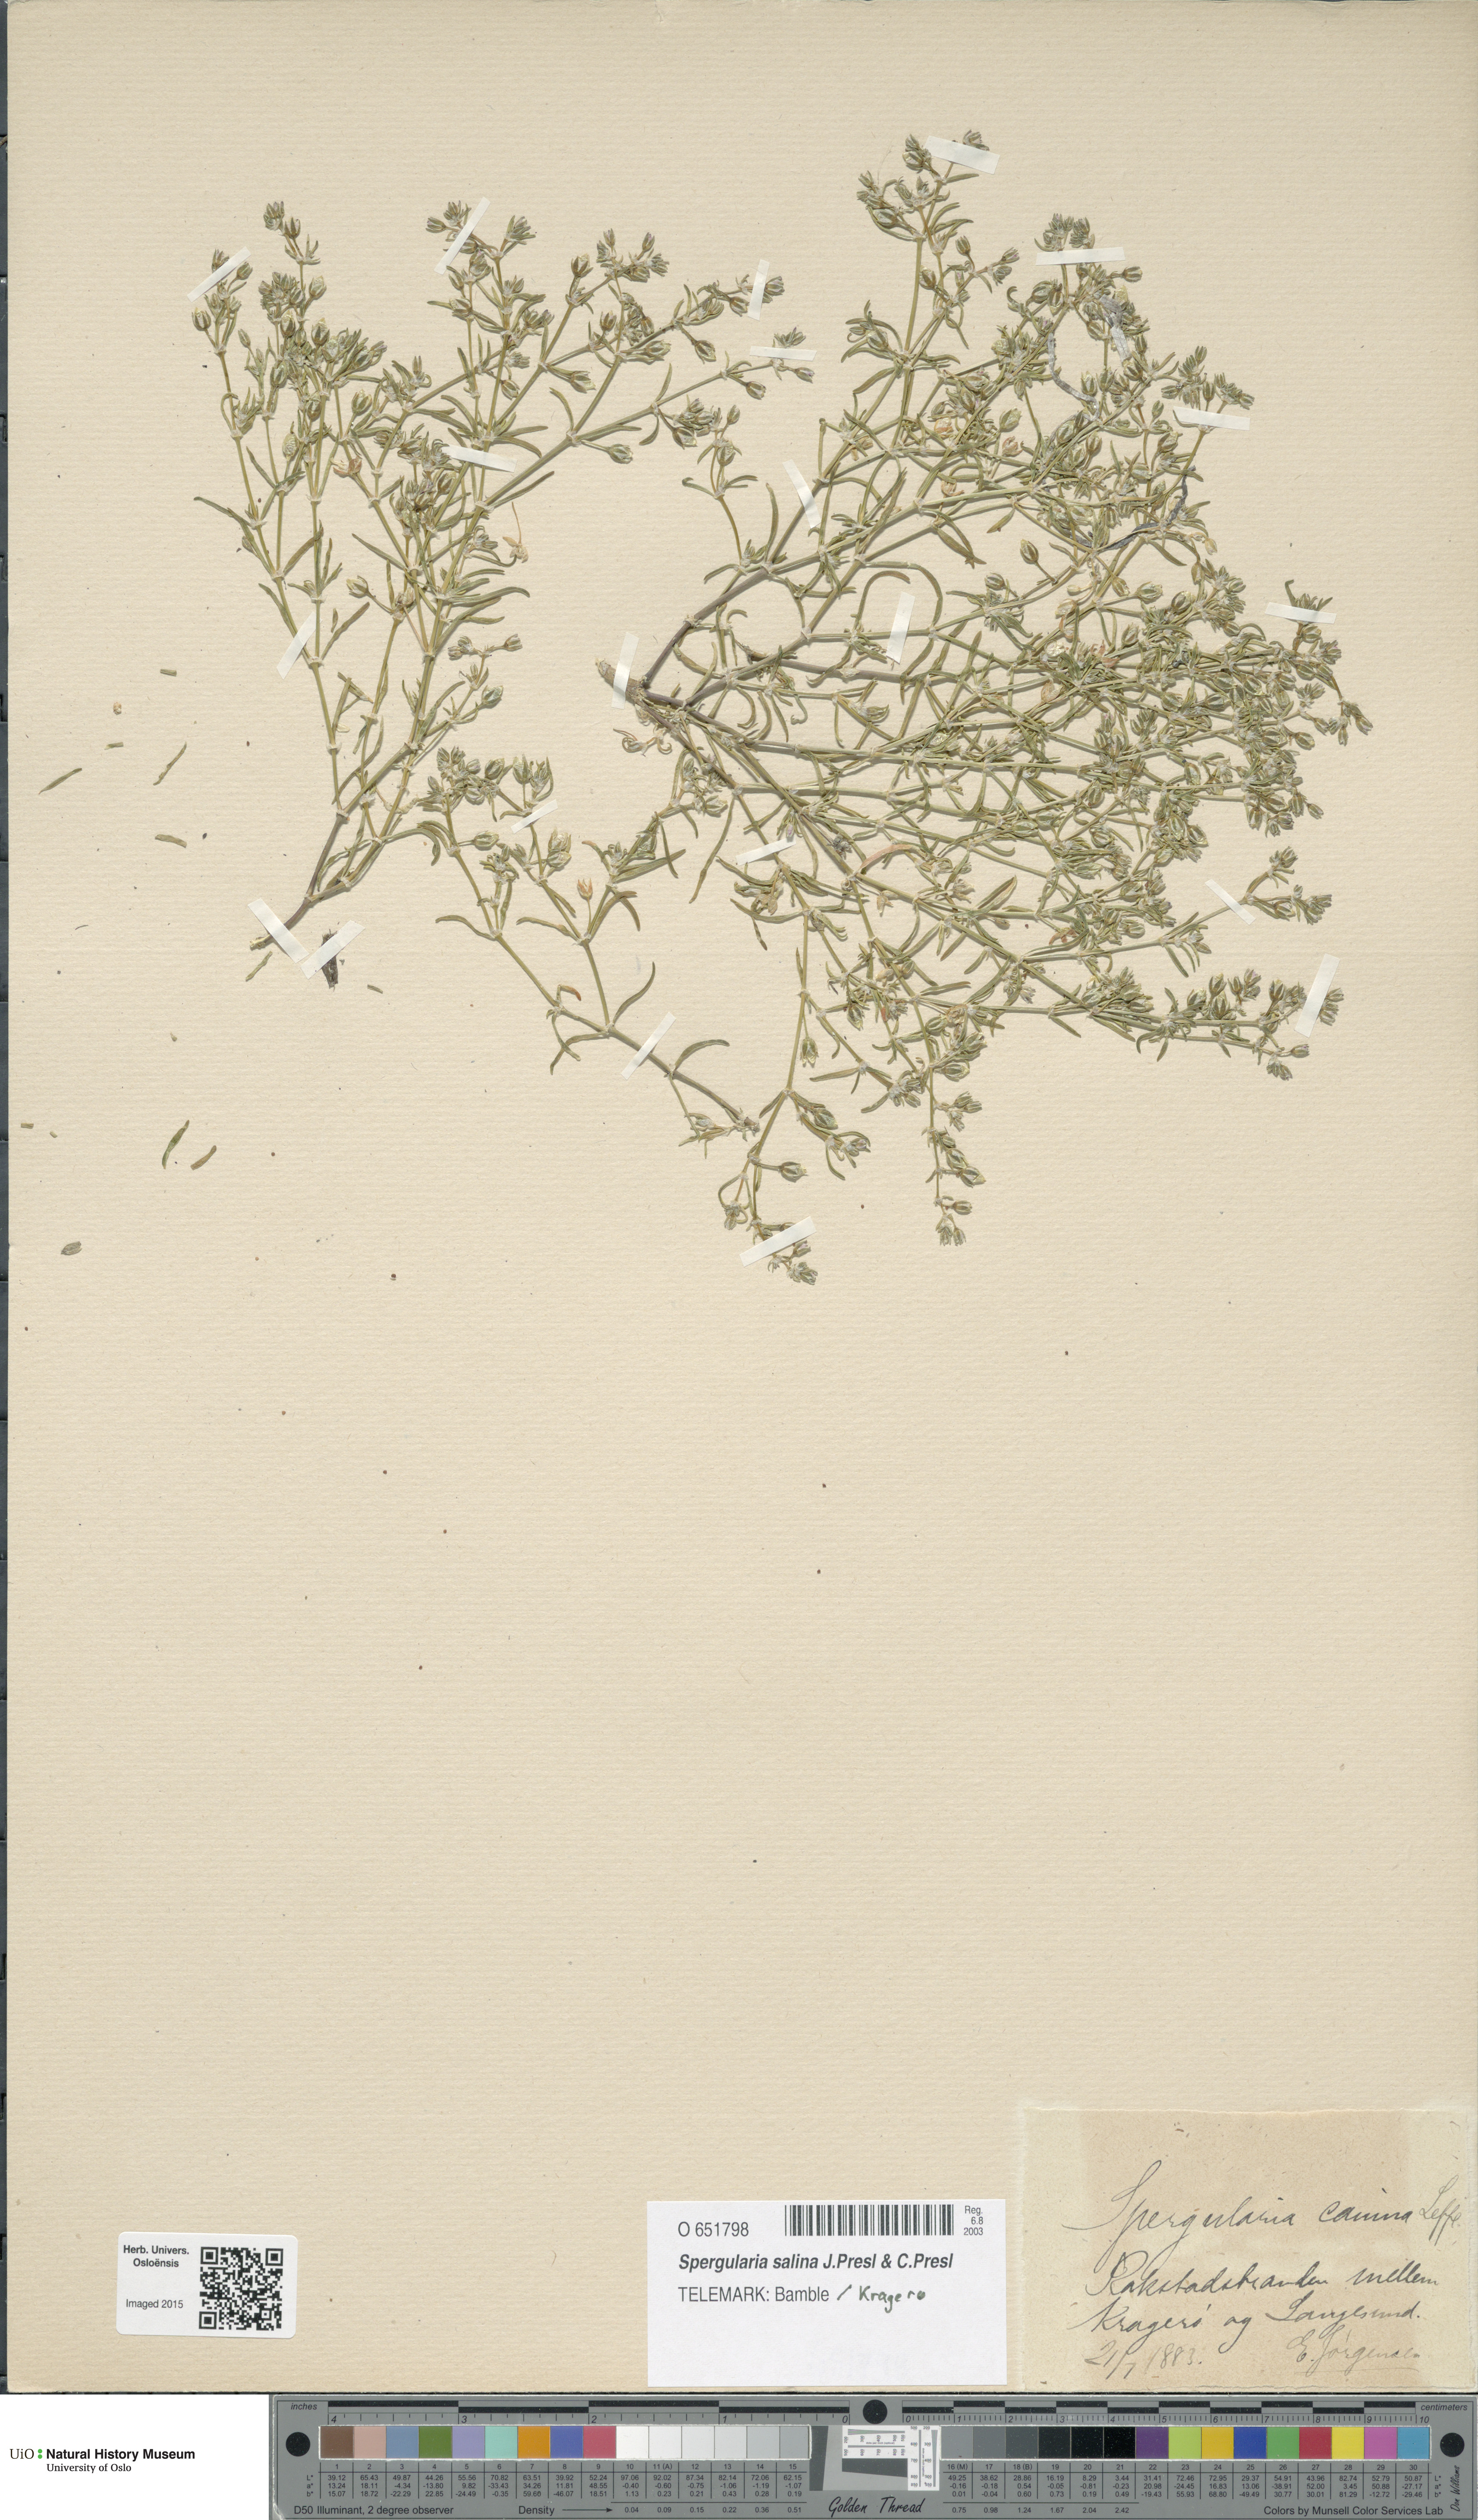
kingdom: Plantae
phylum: Tracheophyta
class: Magnoliopsida
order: Caryophyllales
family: Caryophyllaceae
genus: Spergularia
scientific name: Spergularia marina
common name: Lesser sea-spurrey
